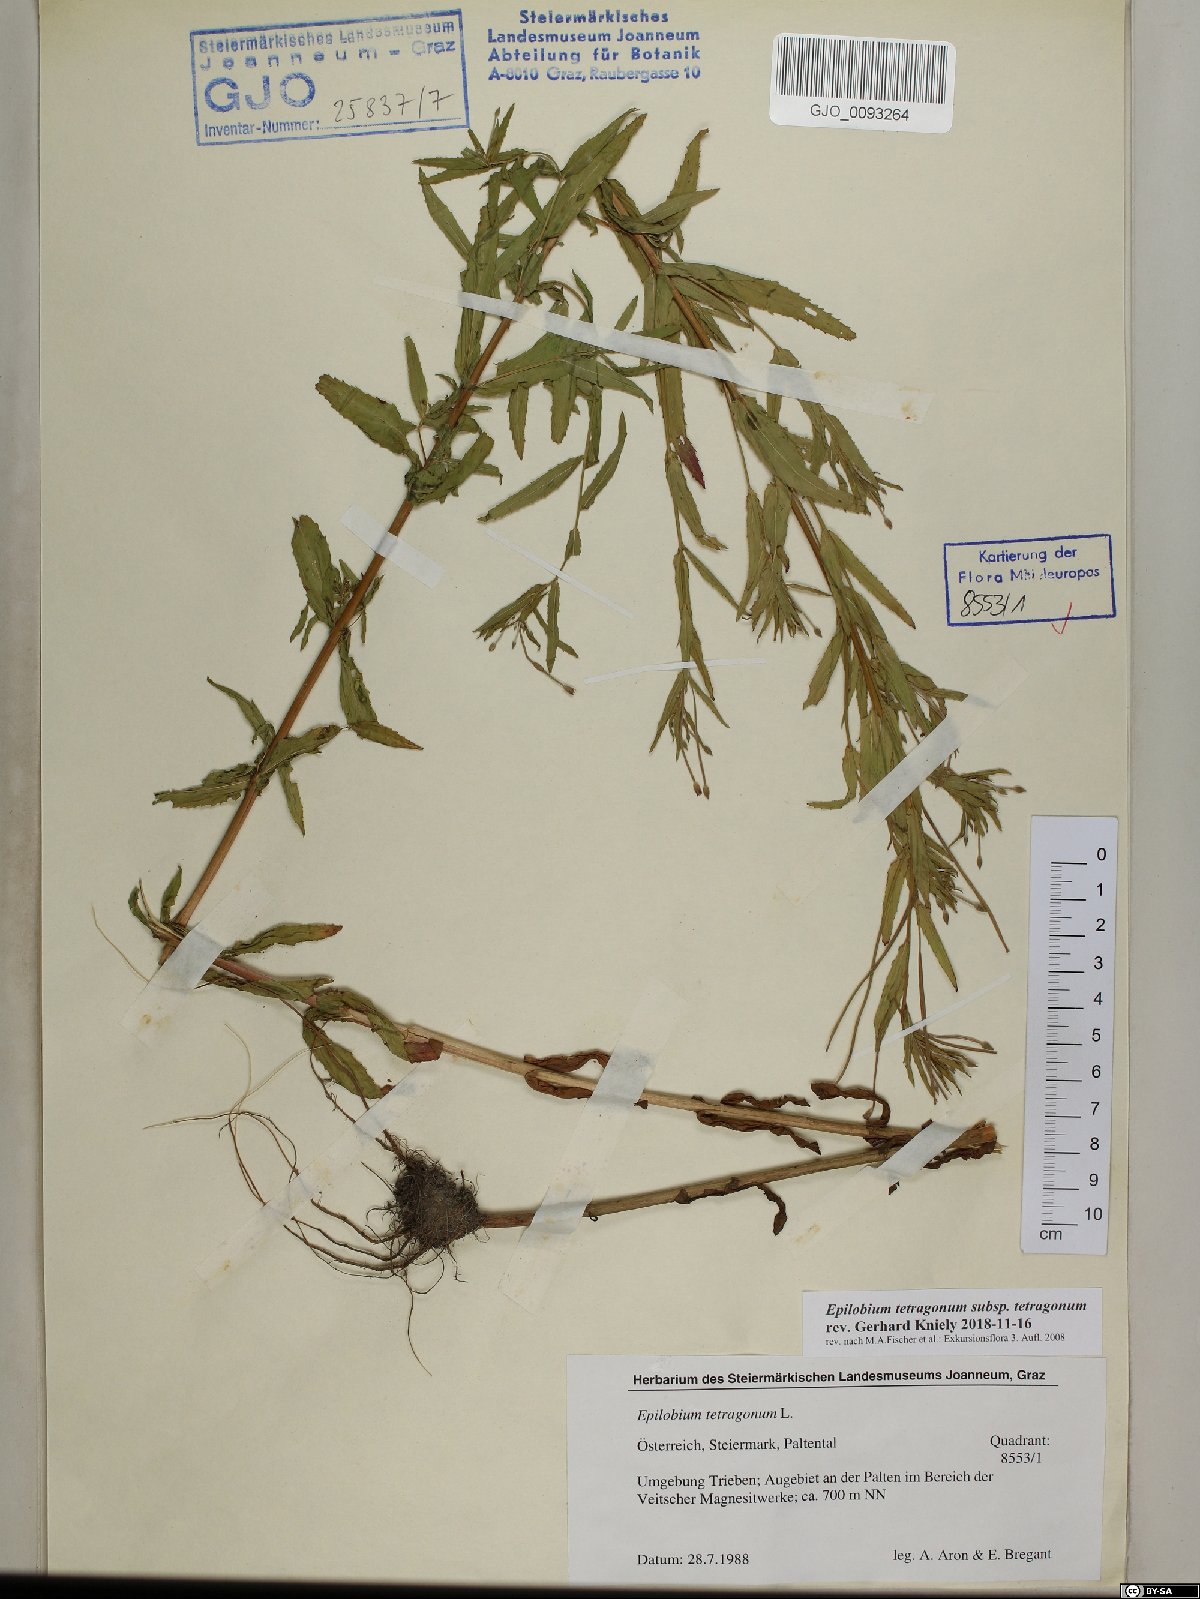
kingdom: Plantae
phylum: Tracheophyta
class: Magnoliopsida
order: Myrtales
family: Onagraceae
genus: Epilobium
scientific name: Epilobium tetragonum
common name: Square-stemmed willowherb
